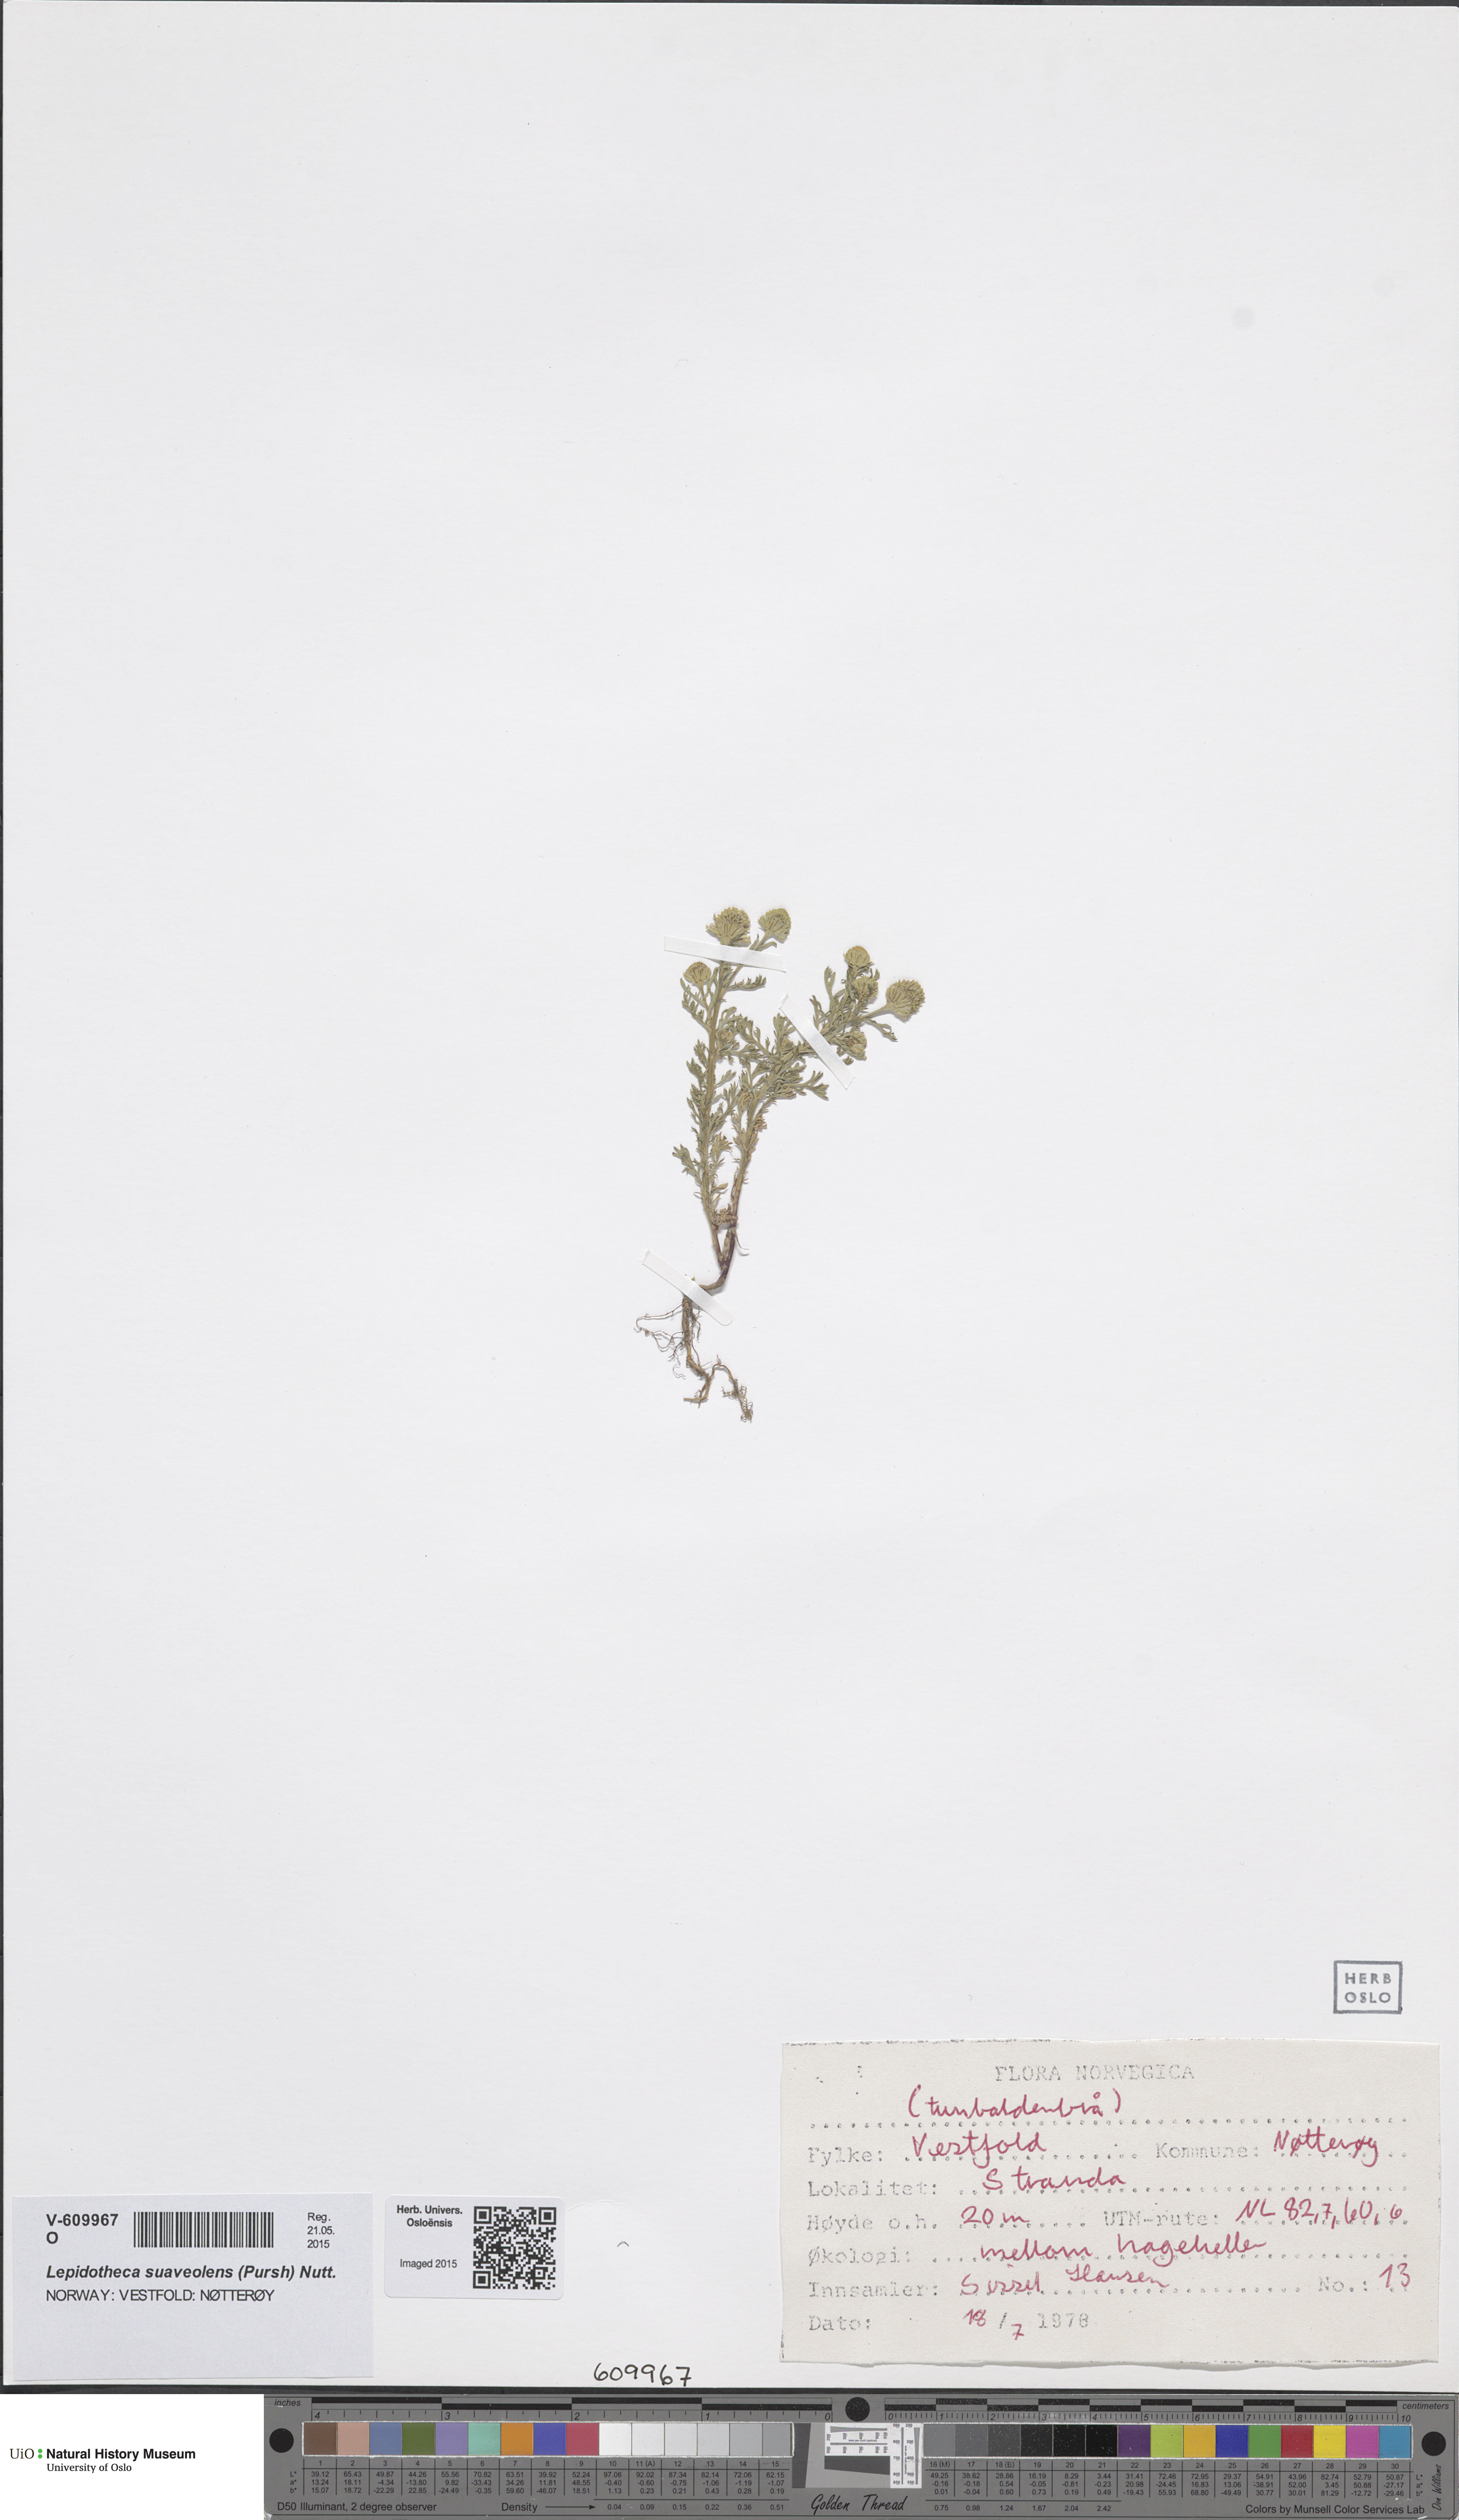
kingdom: Plantae
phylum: Tracheophyta
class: Magnoliopsida
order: Asterales
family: Asteraceae
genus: Matricaria
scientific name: Matricaria discoidea
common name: Disc mayweed
